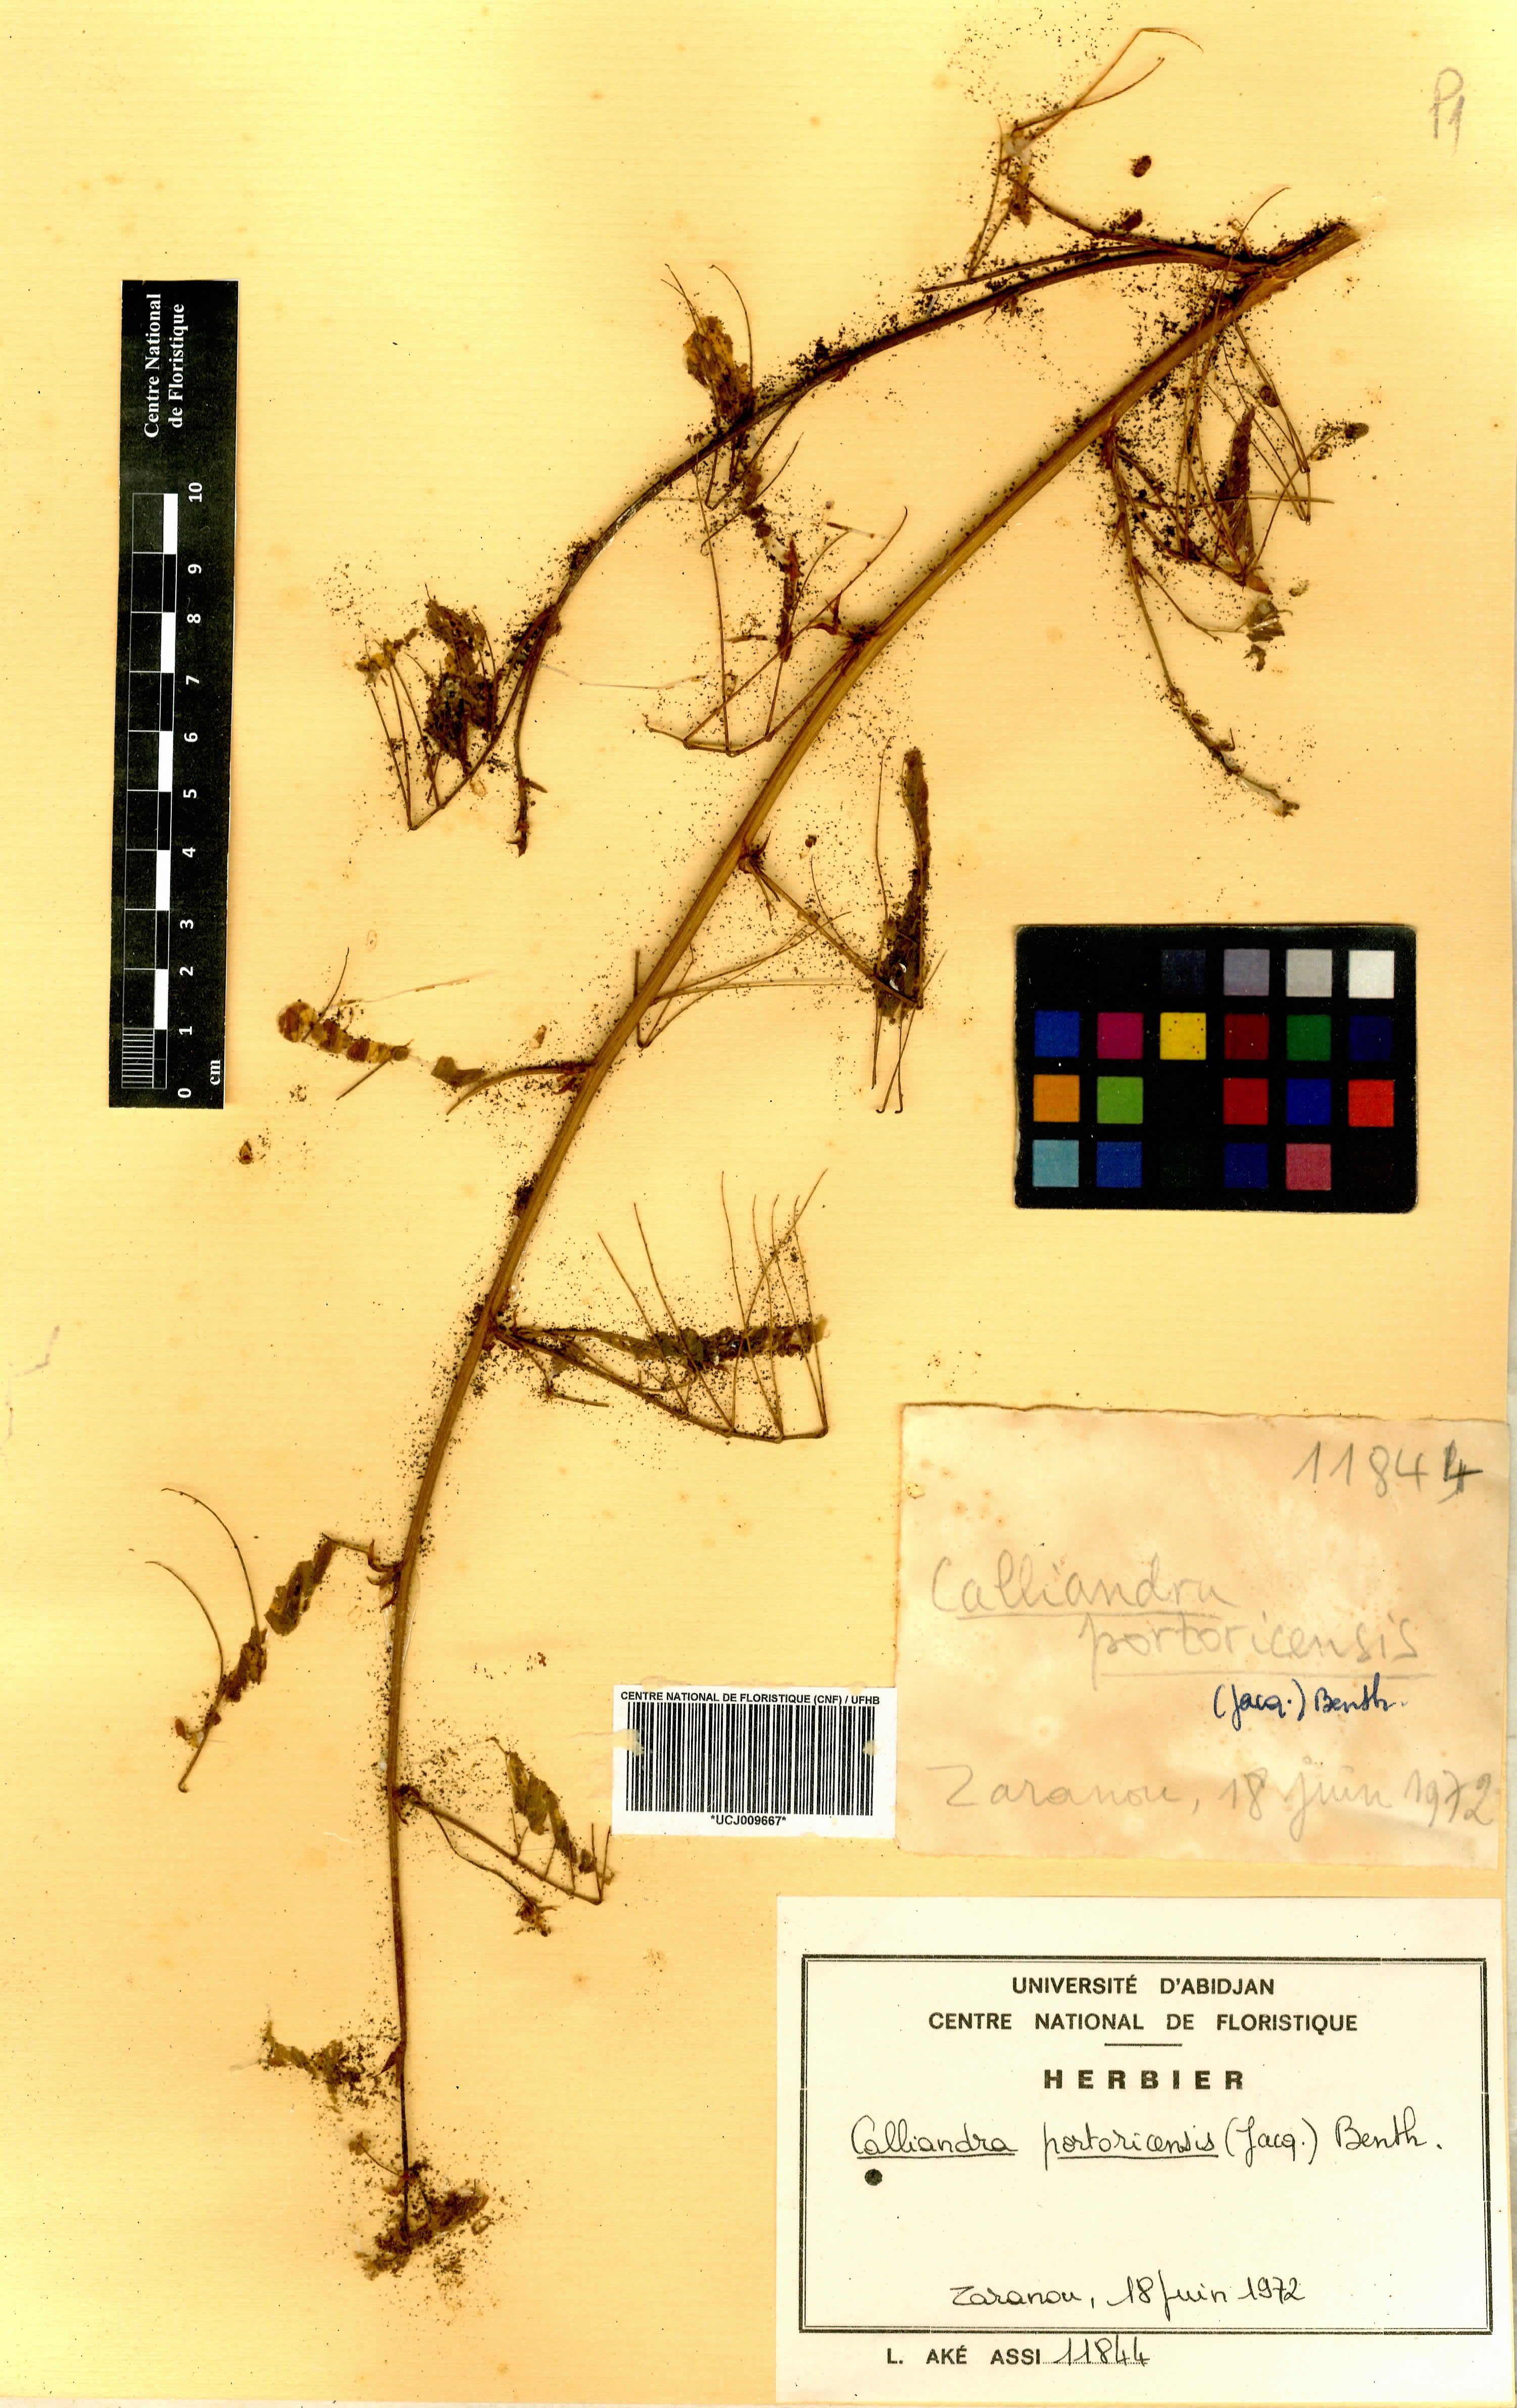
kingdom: Plantae
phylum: Tracheophyta
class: Magnoliopsida
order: Fabales
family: Fabaceae
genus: Zapoteca
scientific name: Zapoteca portoricensis
